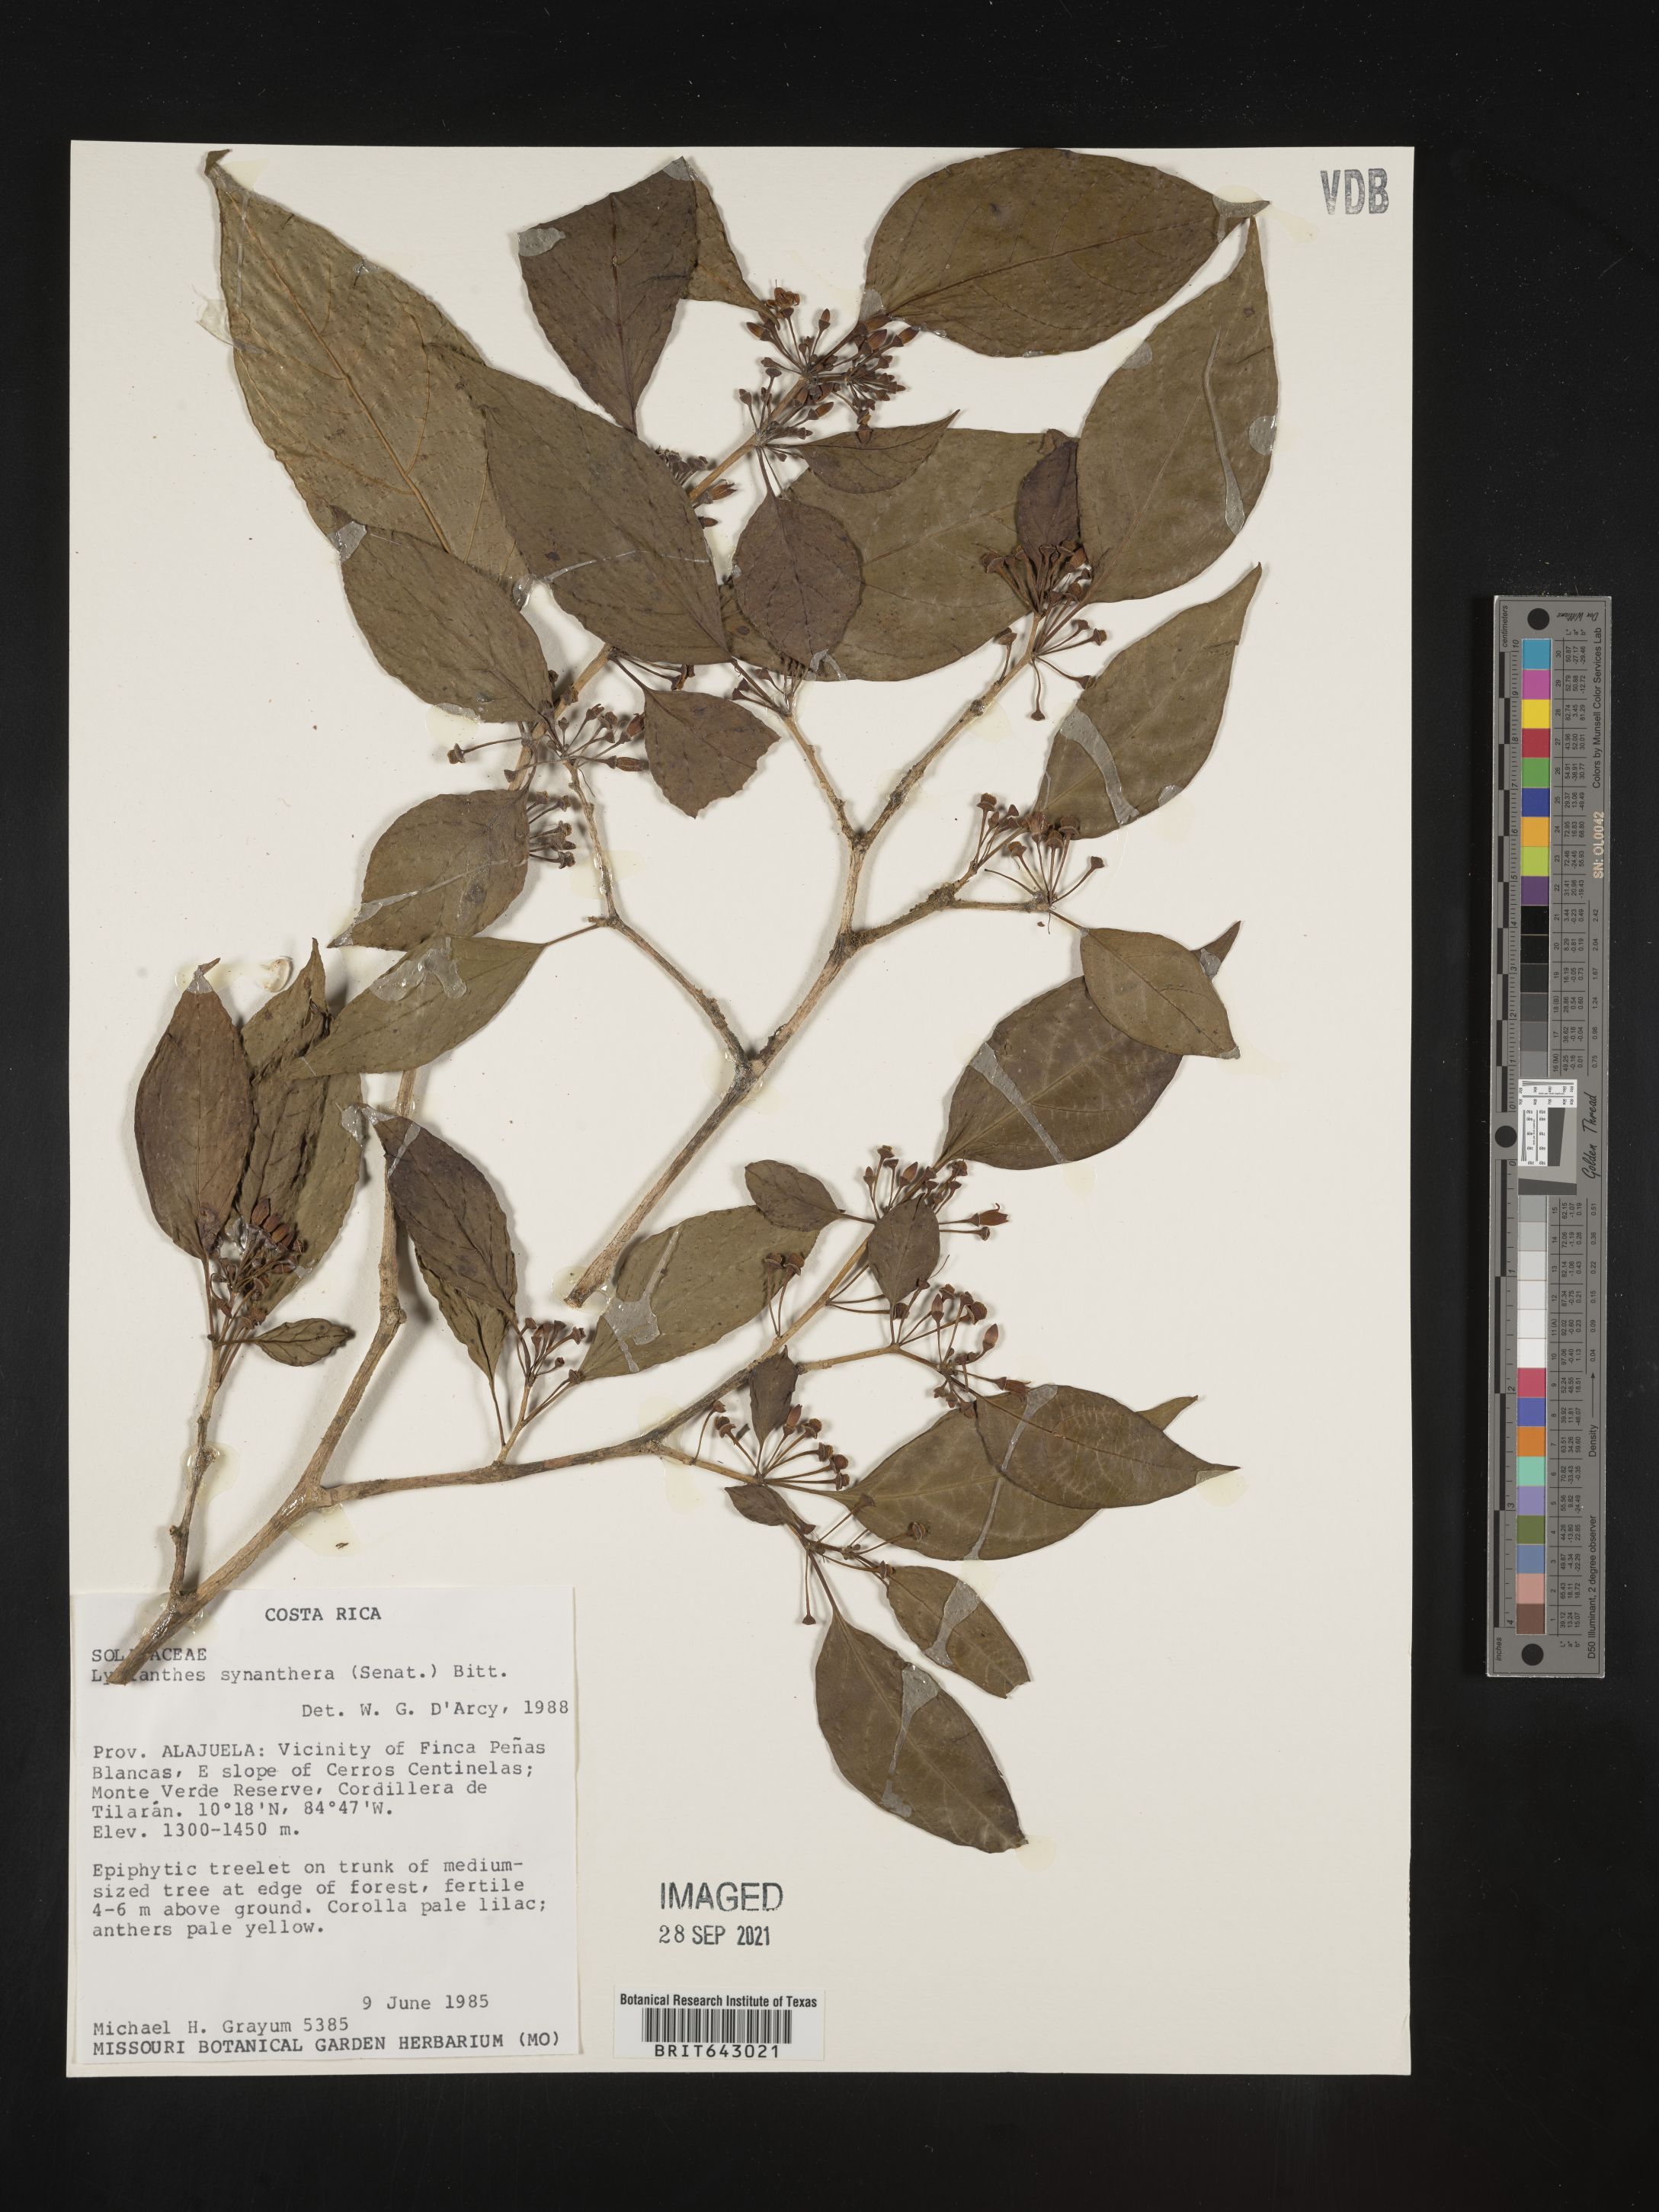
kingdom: Plantae
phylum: Tracheophyta
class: Magnoliopsida
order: Solanales
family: Solanaceae
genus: Lycianthes
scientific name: Lycianthes
